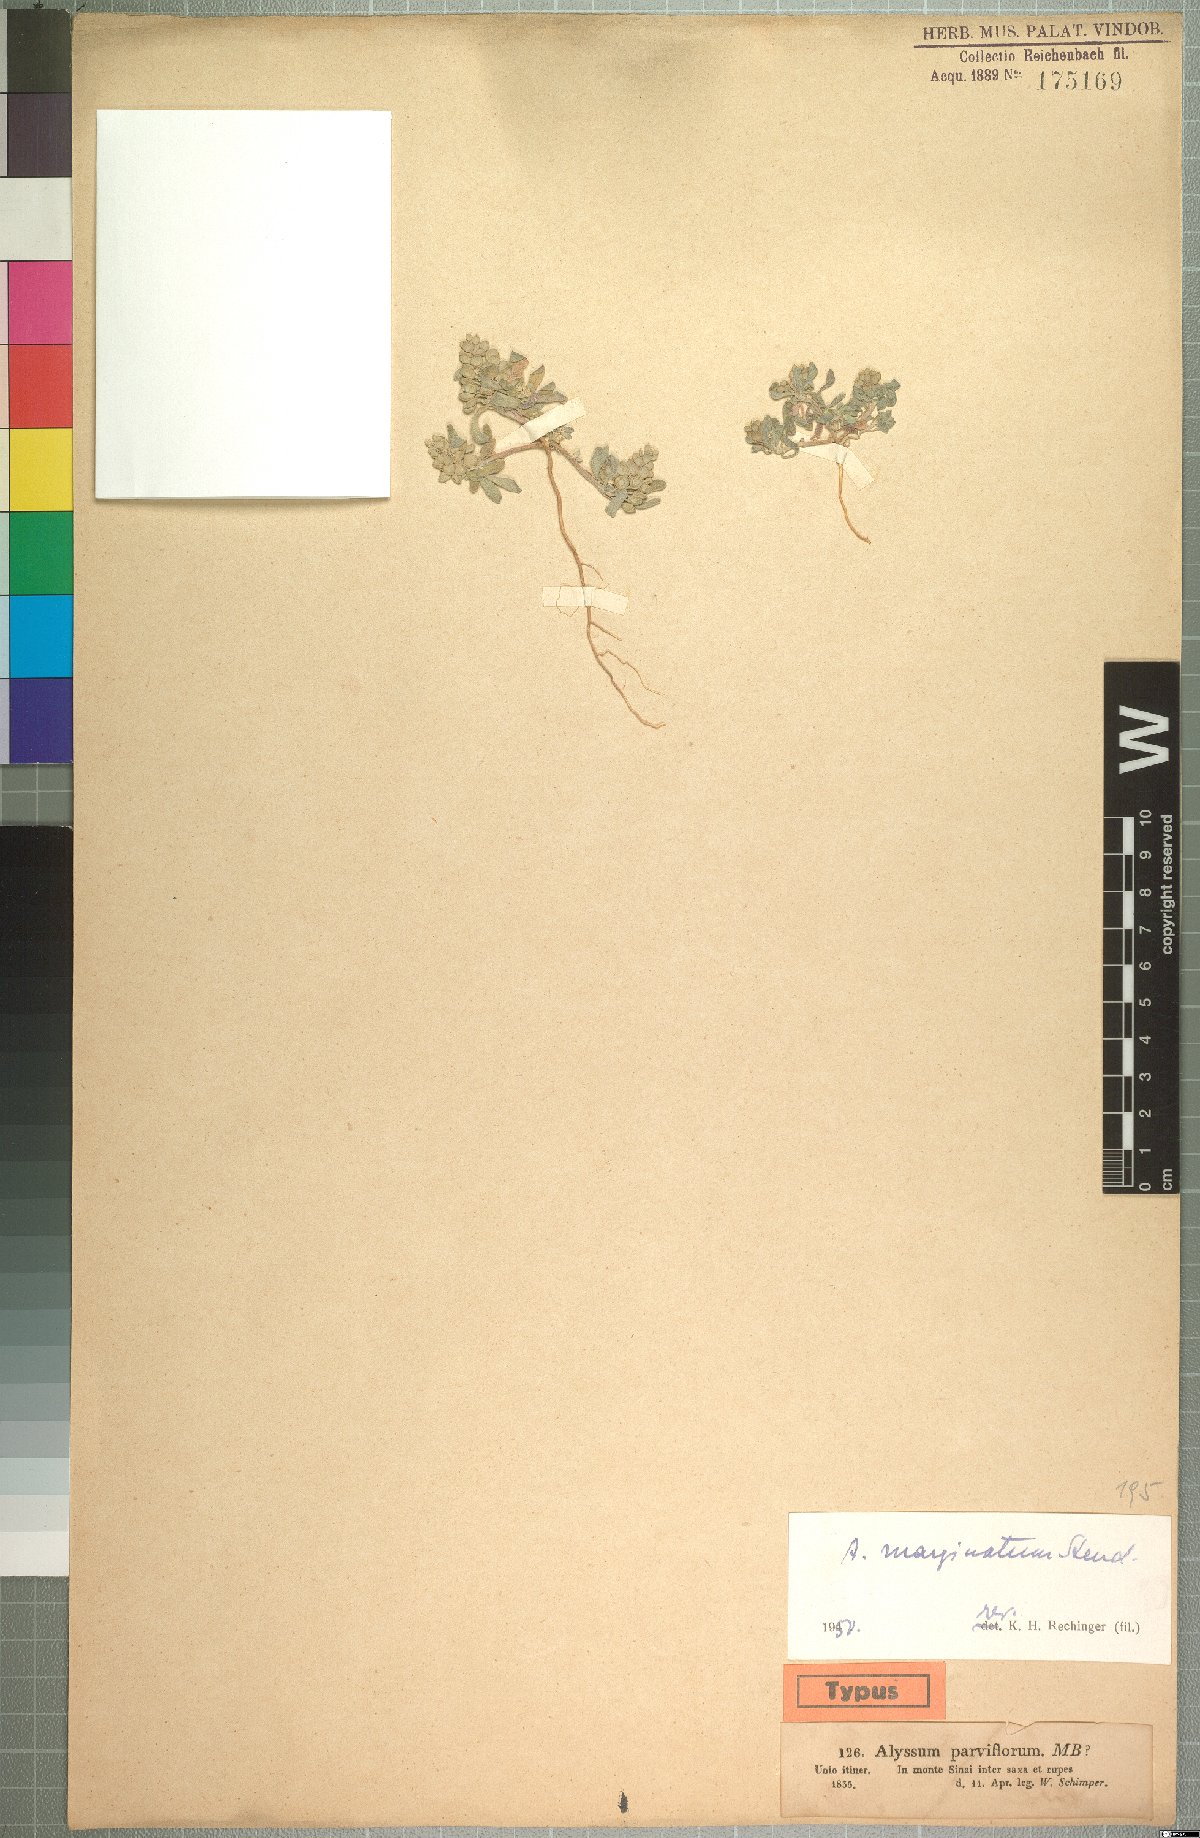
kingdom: Plantae
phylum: Tracheophyta
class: Magnoliopsida
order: Brassicales
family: Brassicaceae
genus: Alyssum
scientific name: Alyssum szovitsianum
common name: Szowits' madwort
